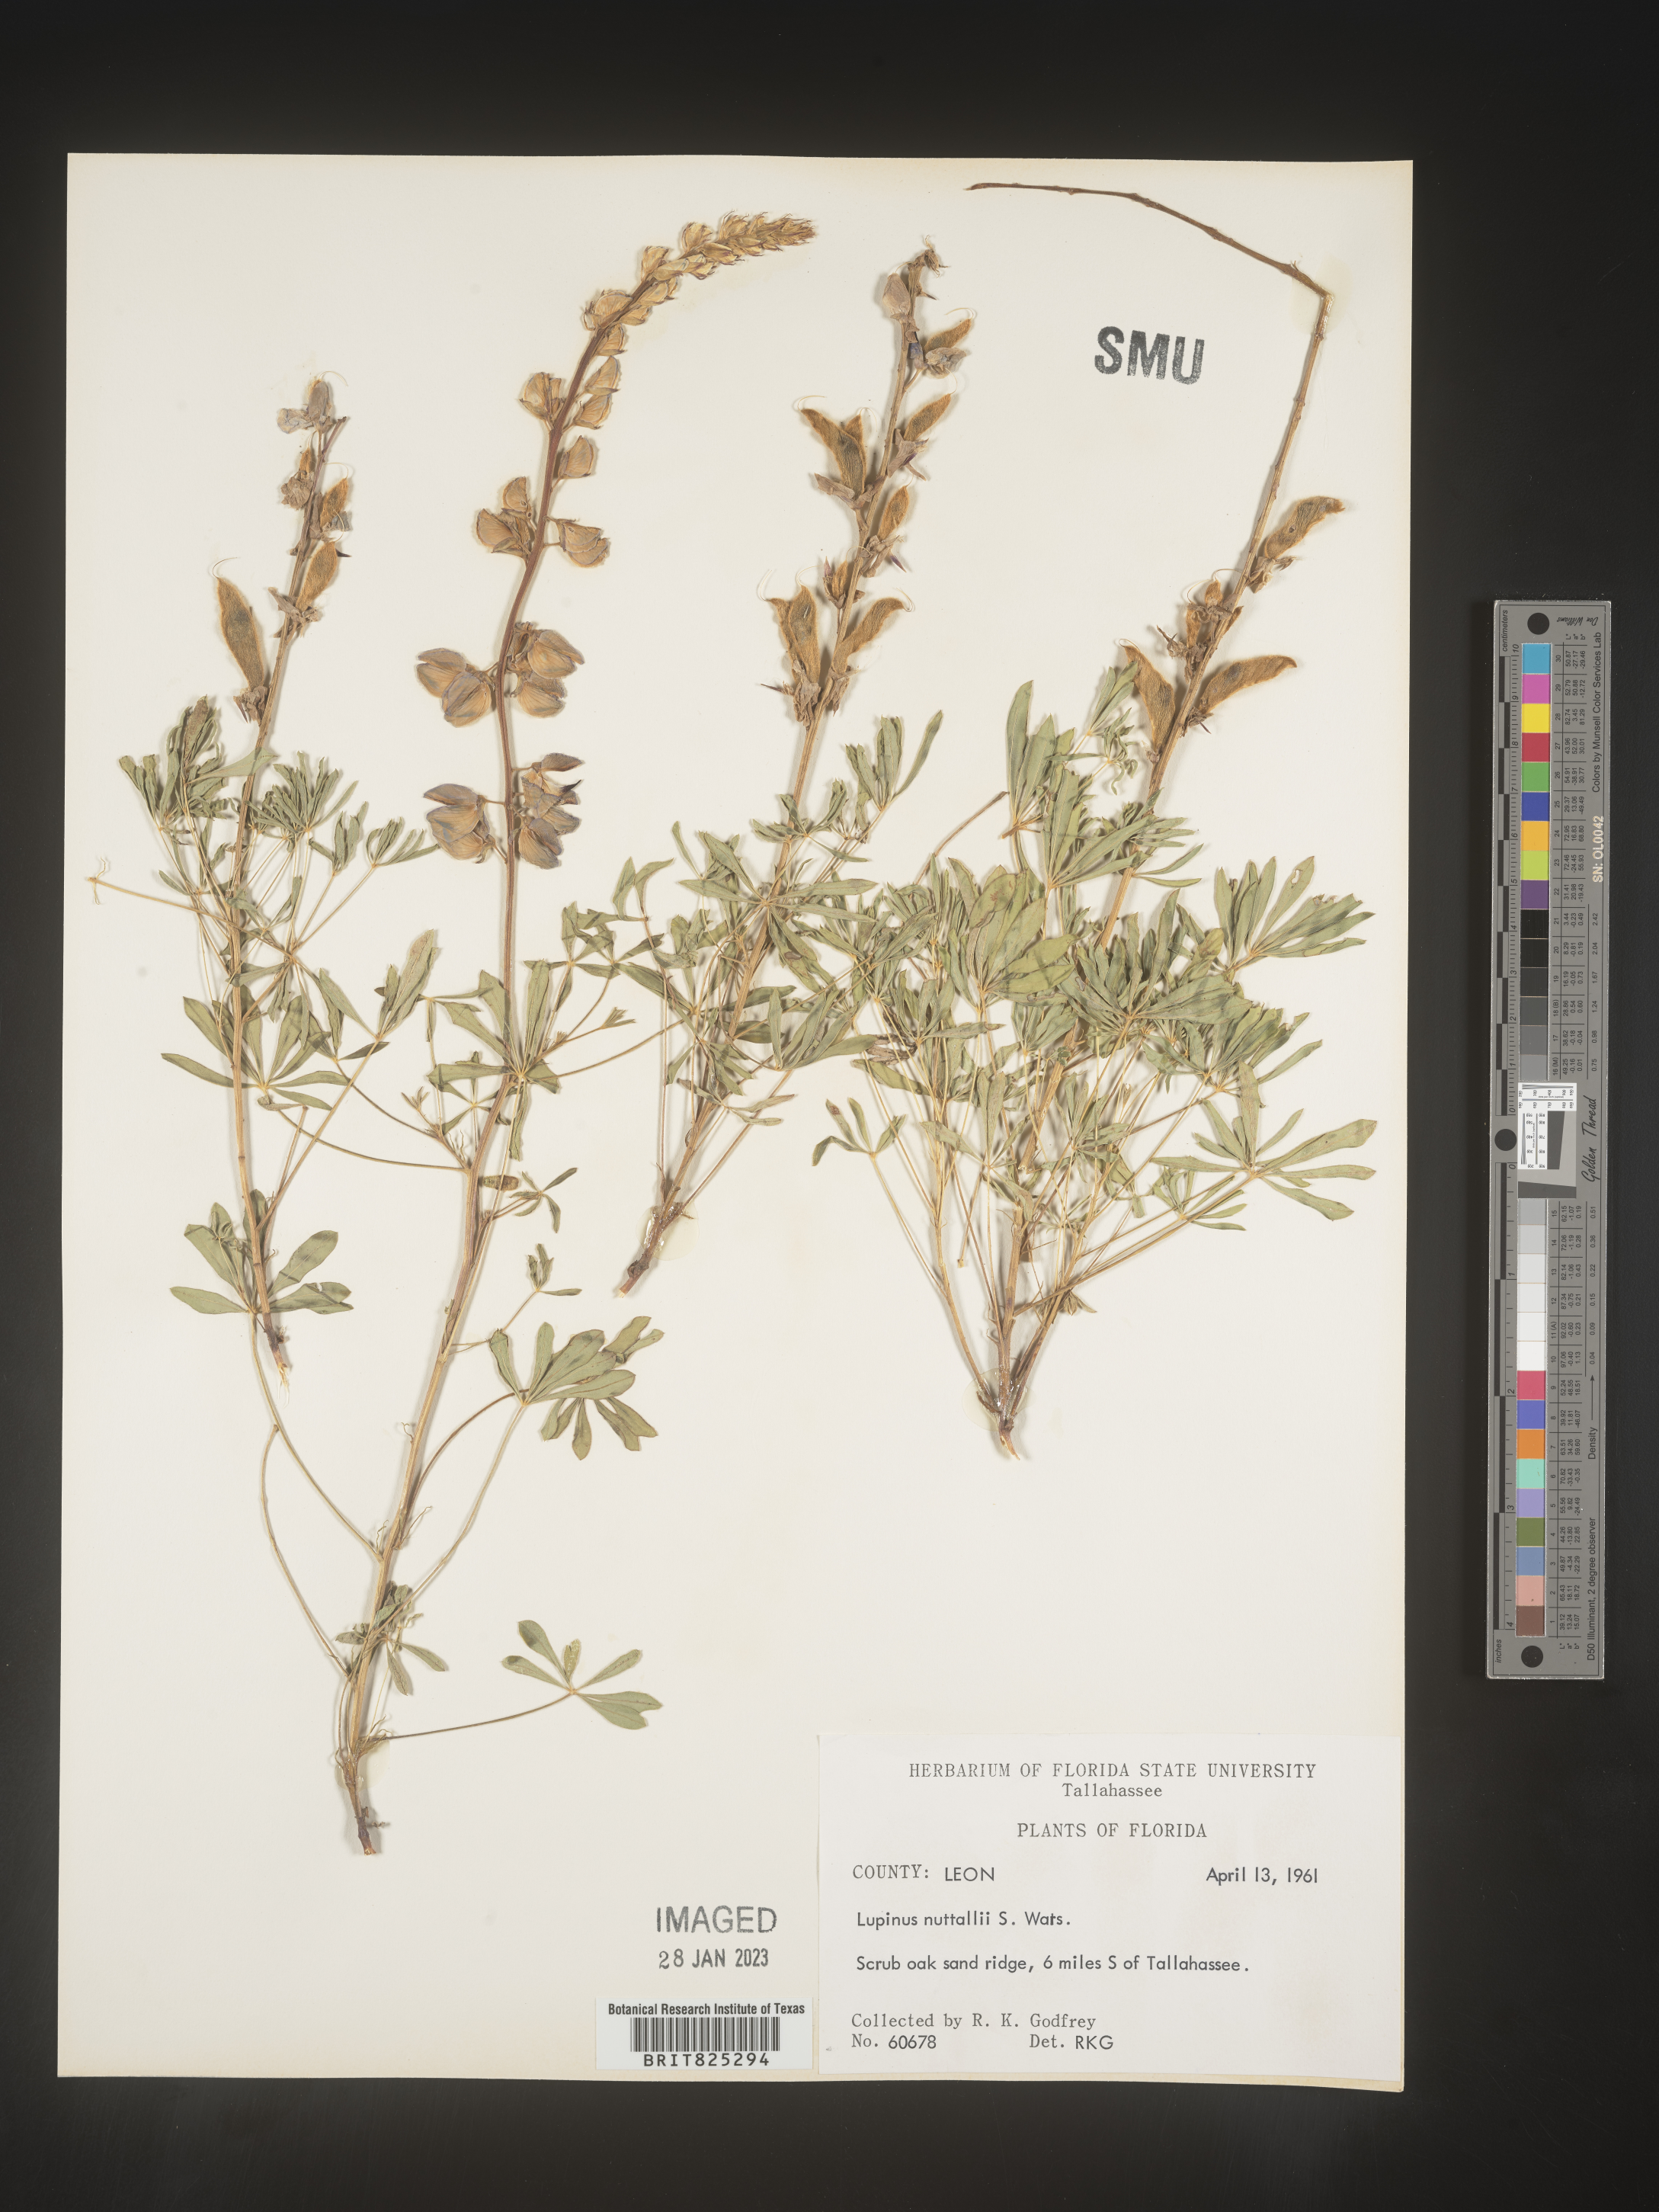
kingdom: Plantae
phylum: Tracheophyta
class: Magnoliopsida
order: Fabales
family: Fabaceae
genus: Lupinus
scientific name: Lupinus
